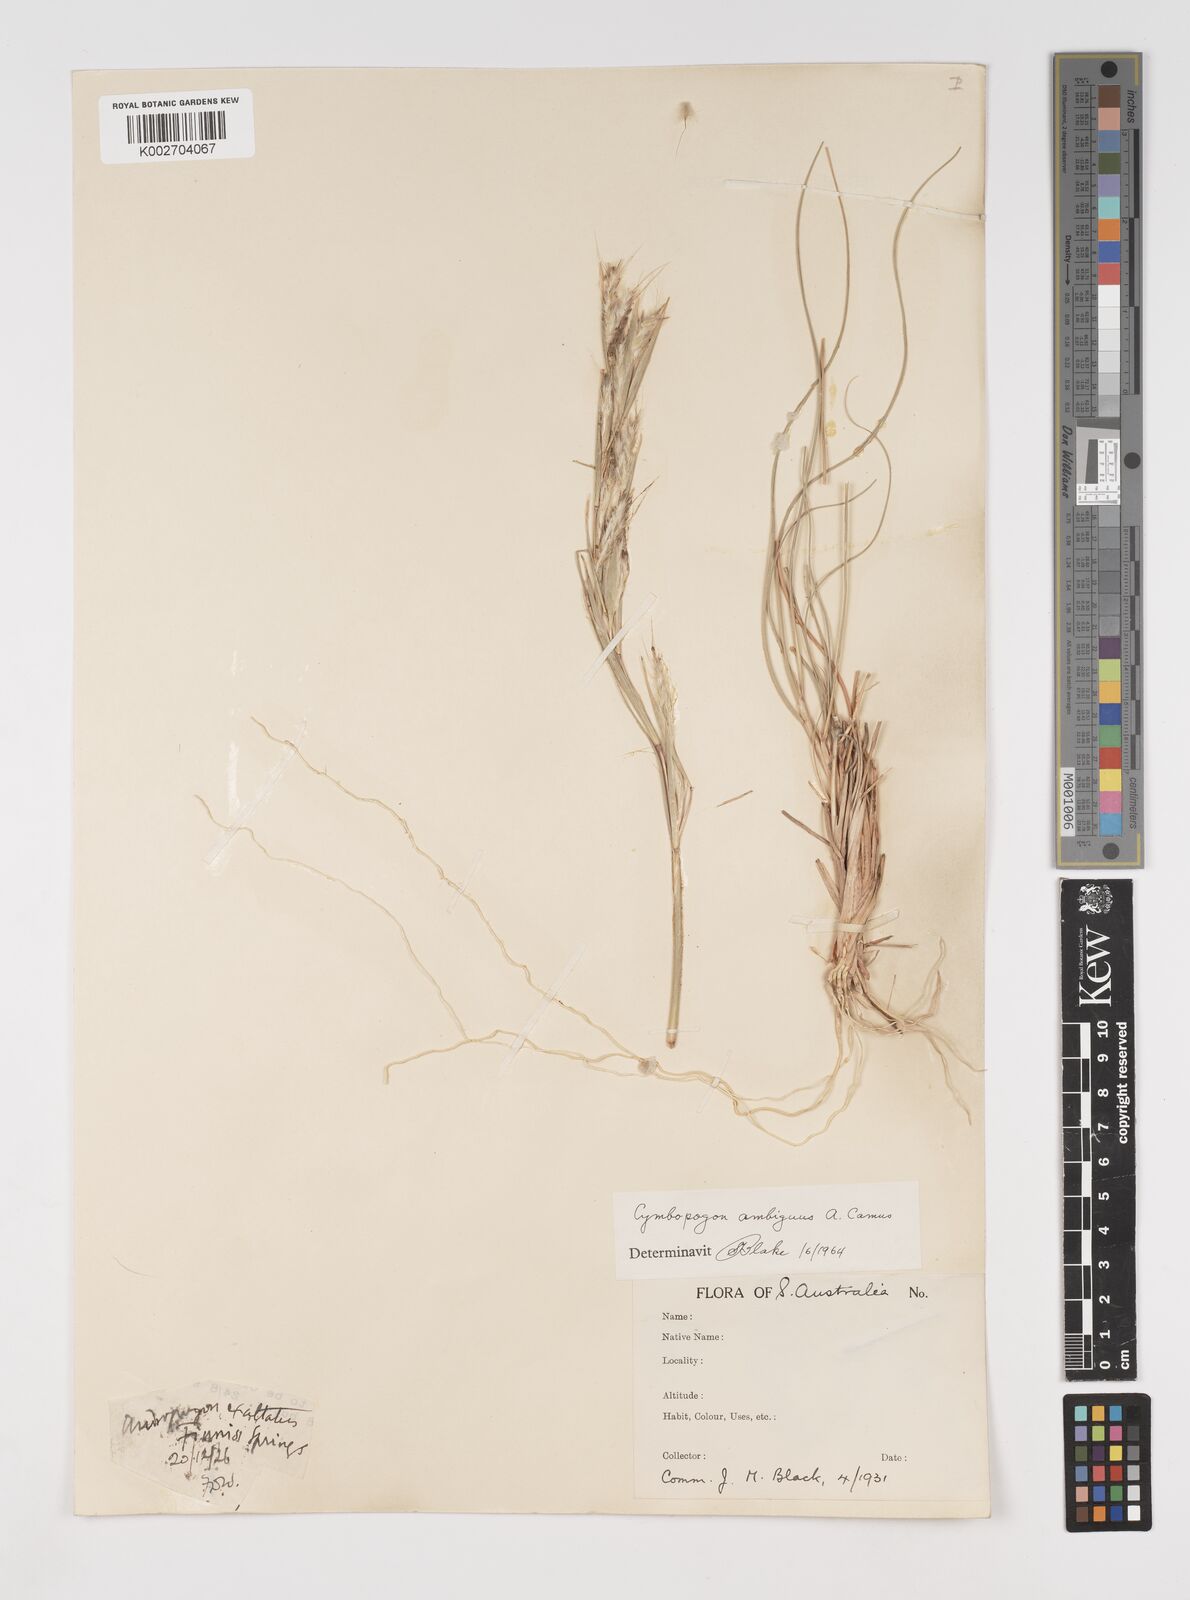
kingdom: Plantae
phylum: Tracheophyta
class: Liliopsida
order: Poales
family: Poaceae
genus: Cymbopogon
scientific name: Cymbopogon ambiguus
